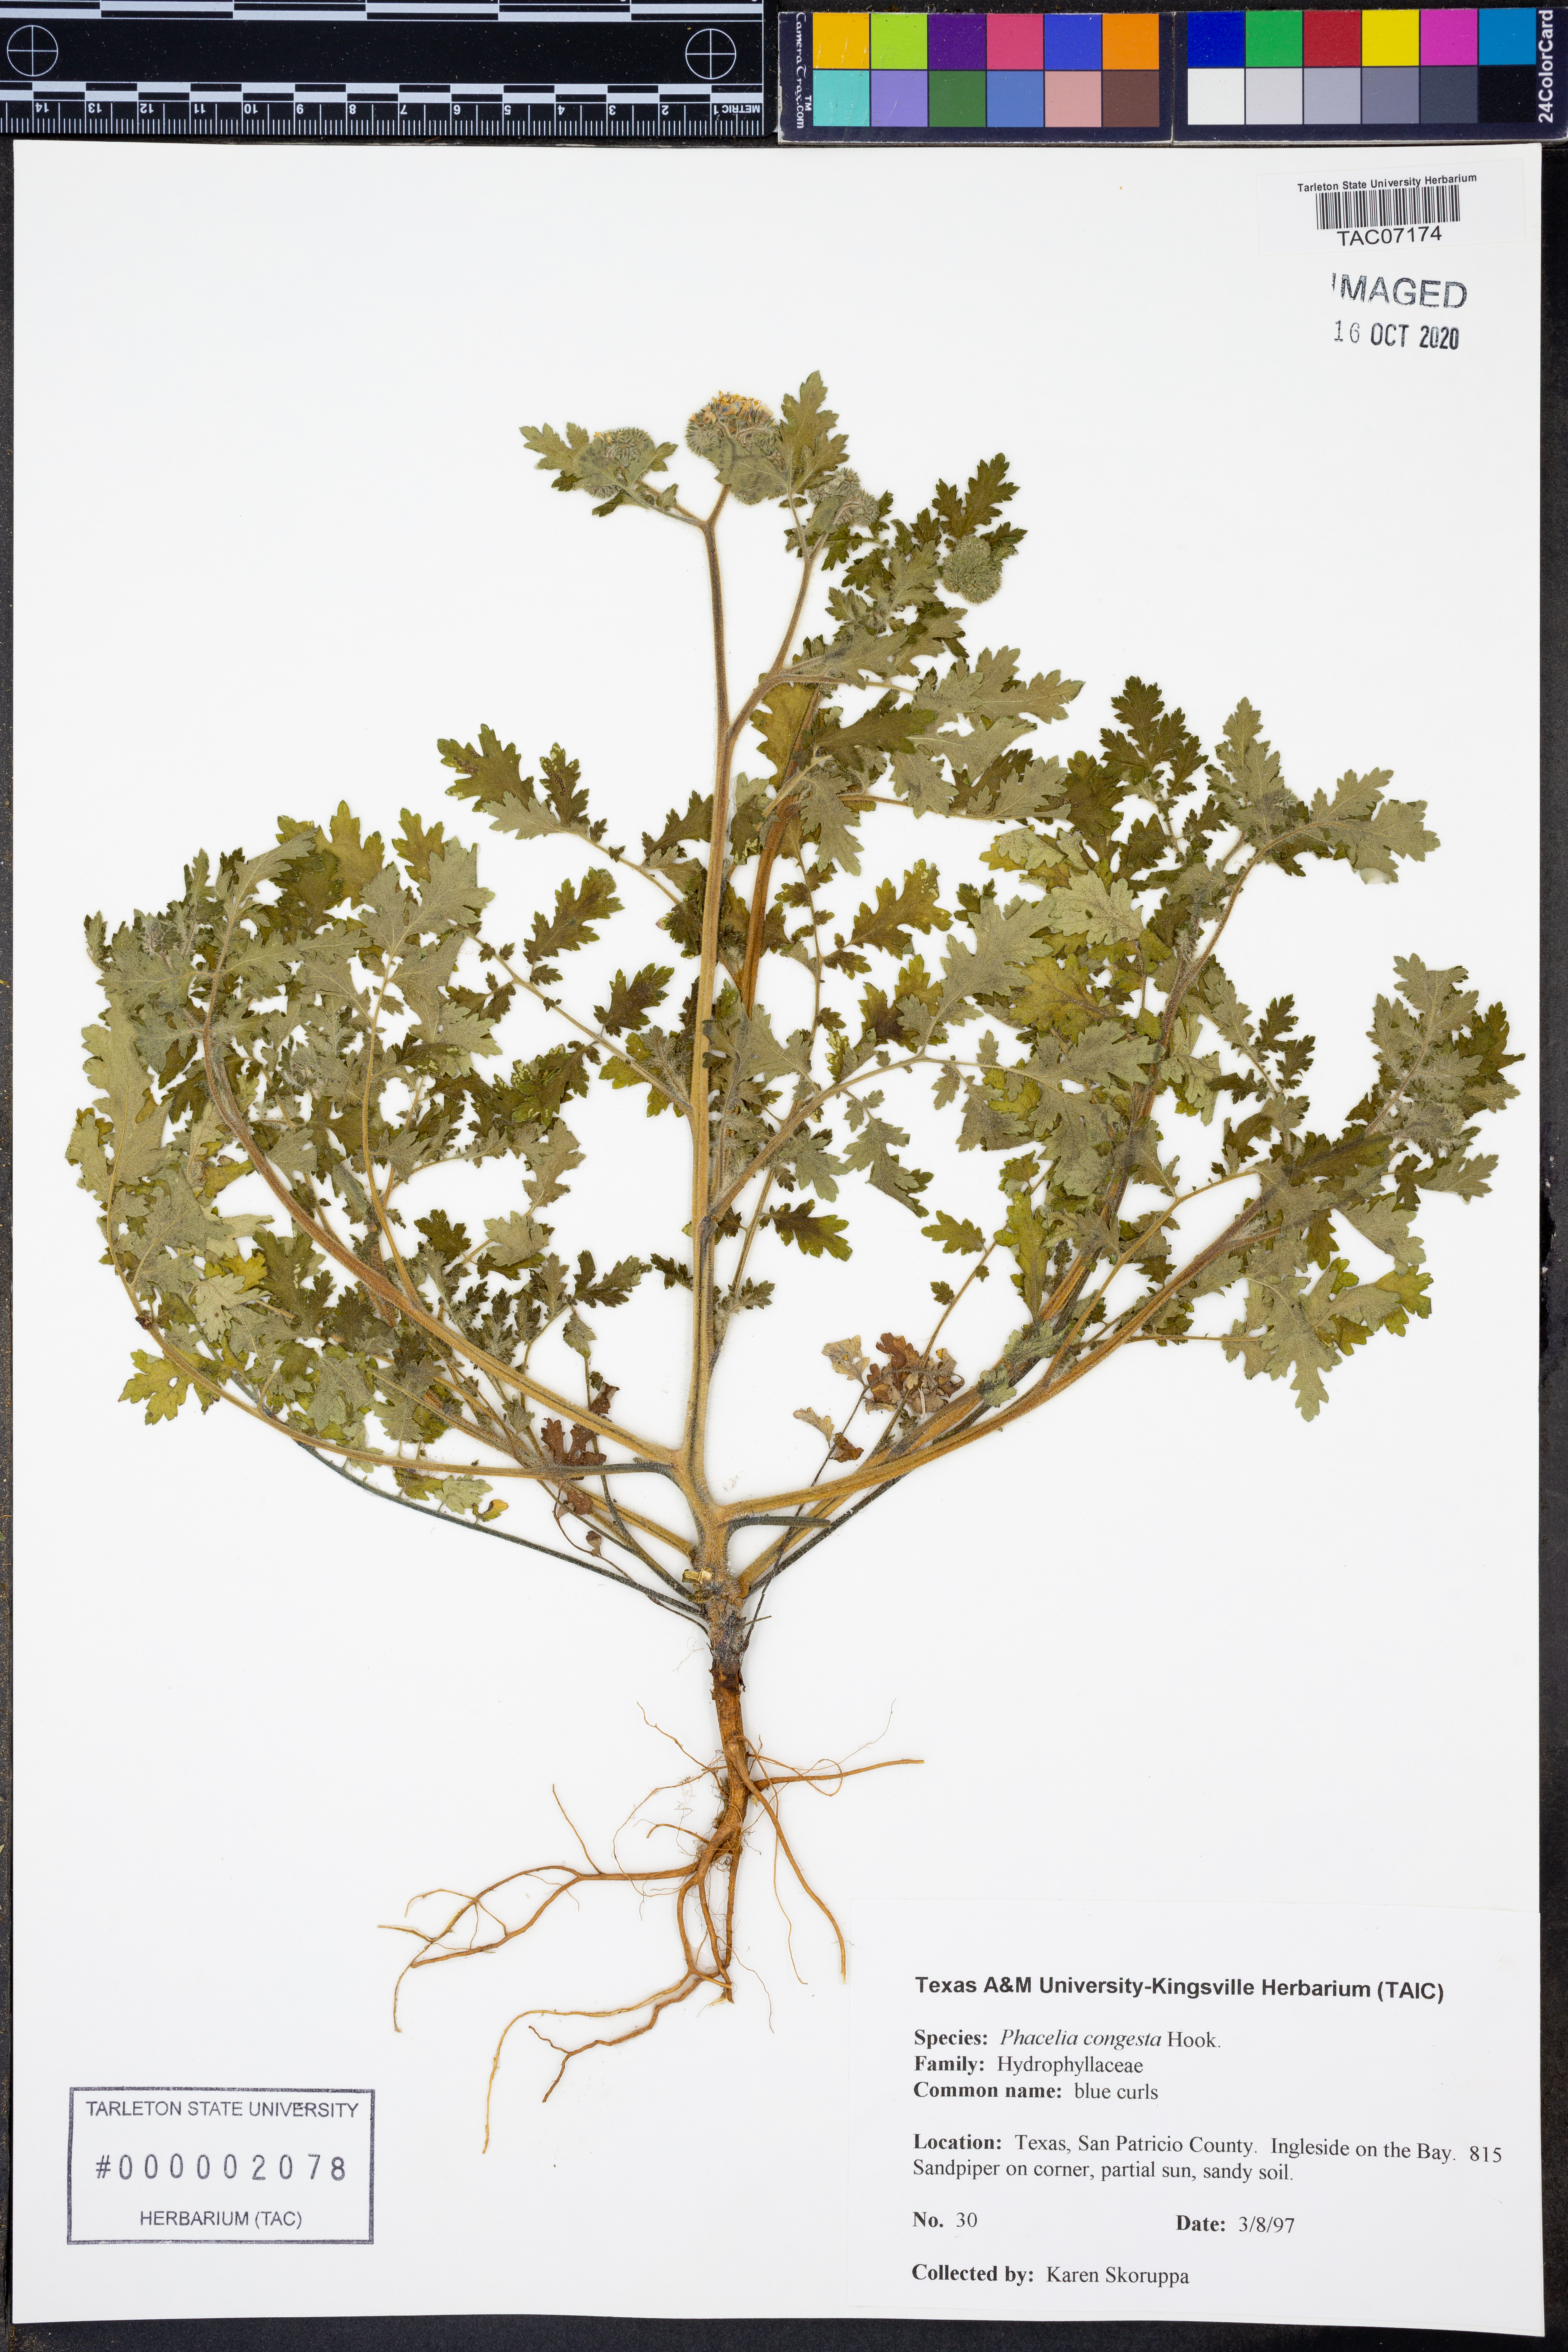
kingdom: Plantae
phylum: Tracheophyta
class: Magnoliopsida
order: Boraginales
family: Hydrophyllaceae
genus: Phacelia
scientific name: Phacelia congesta
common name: Blue curls
